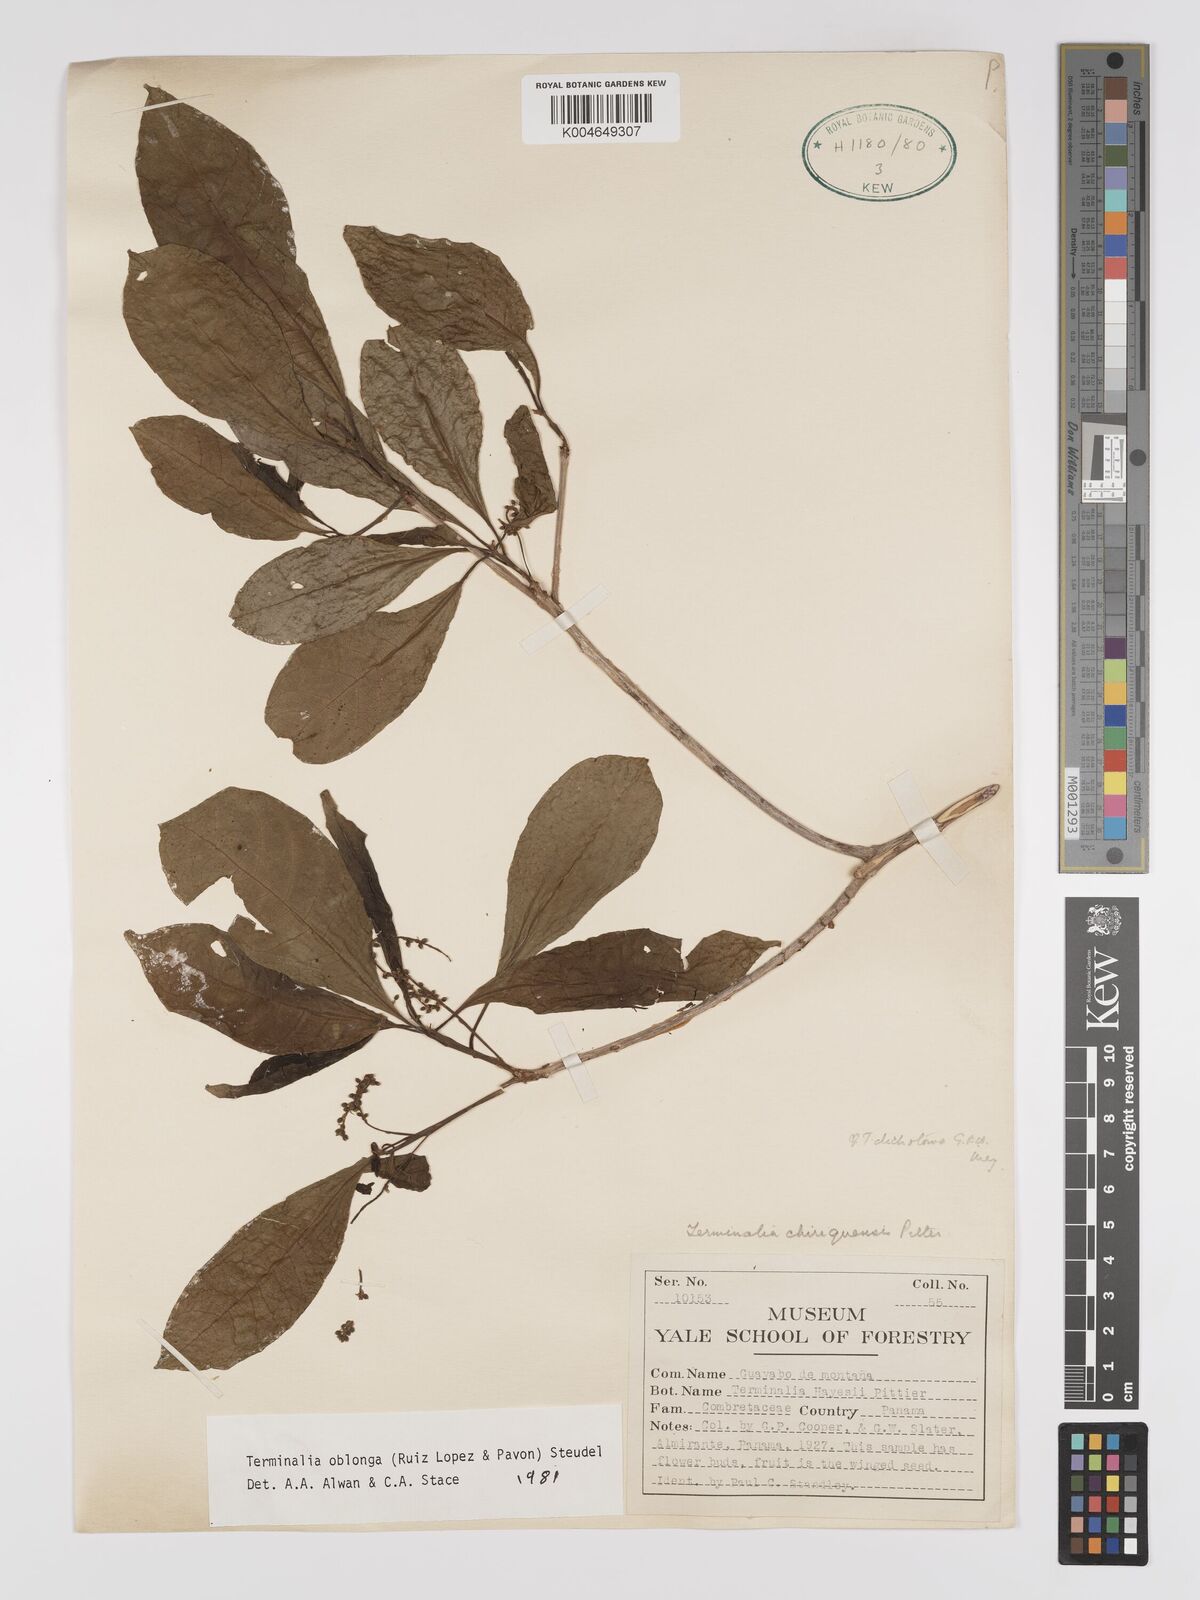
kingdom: Plantae
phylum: Tracheophyta
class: Magnoliopsida
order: Myrtales
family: Combretaceae
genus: Terminalia
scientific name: Terminalia oblonga
